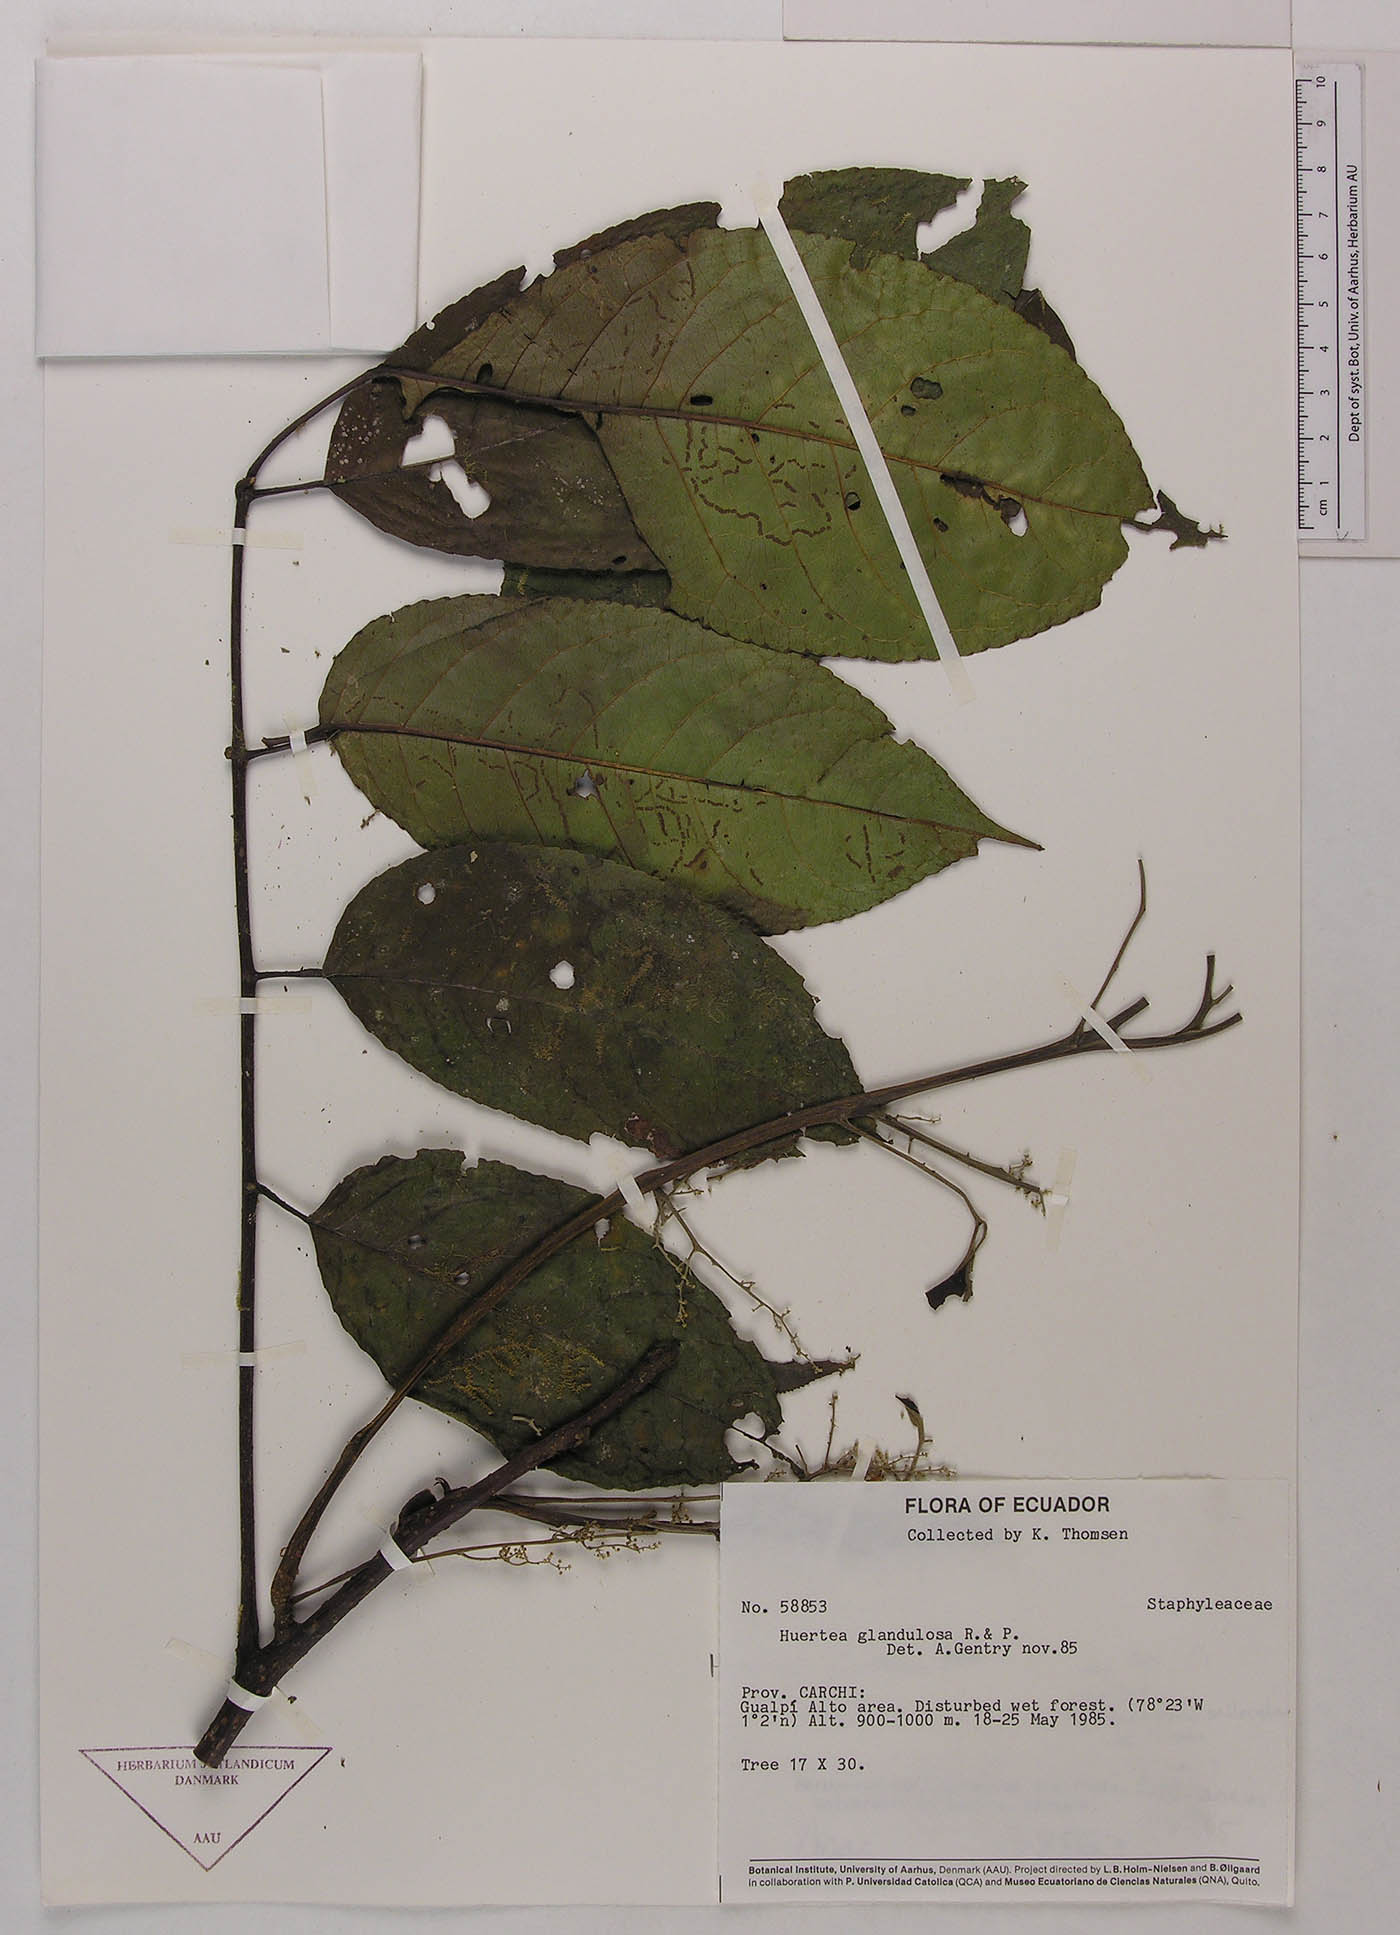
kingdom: Plantae
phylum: Tracheophyta
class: Magnoliopsida
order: Huerteales
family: Tapisciaceae
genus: Huertea
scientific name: Huertea glandulosa
